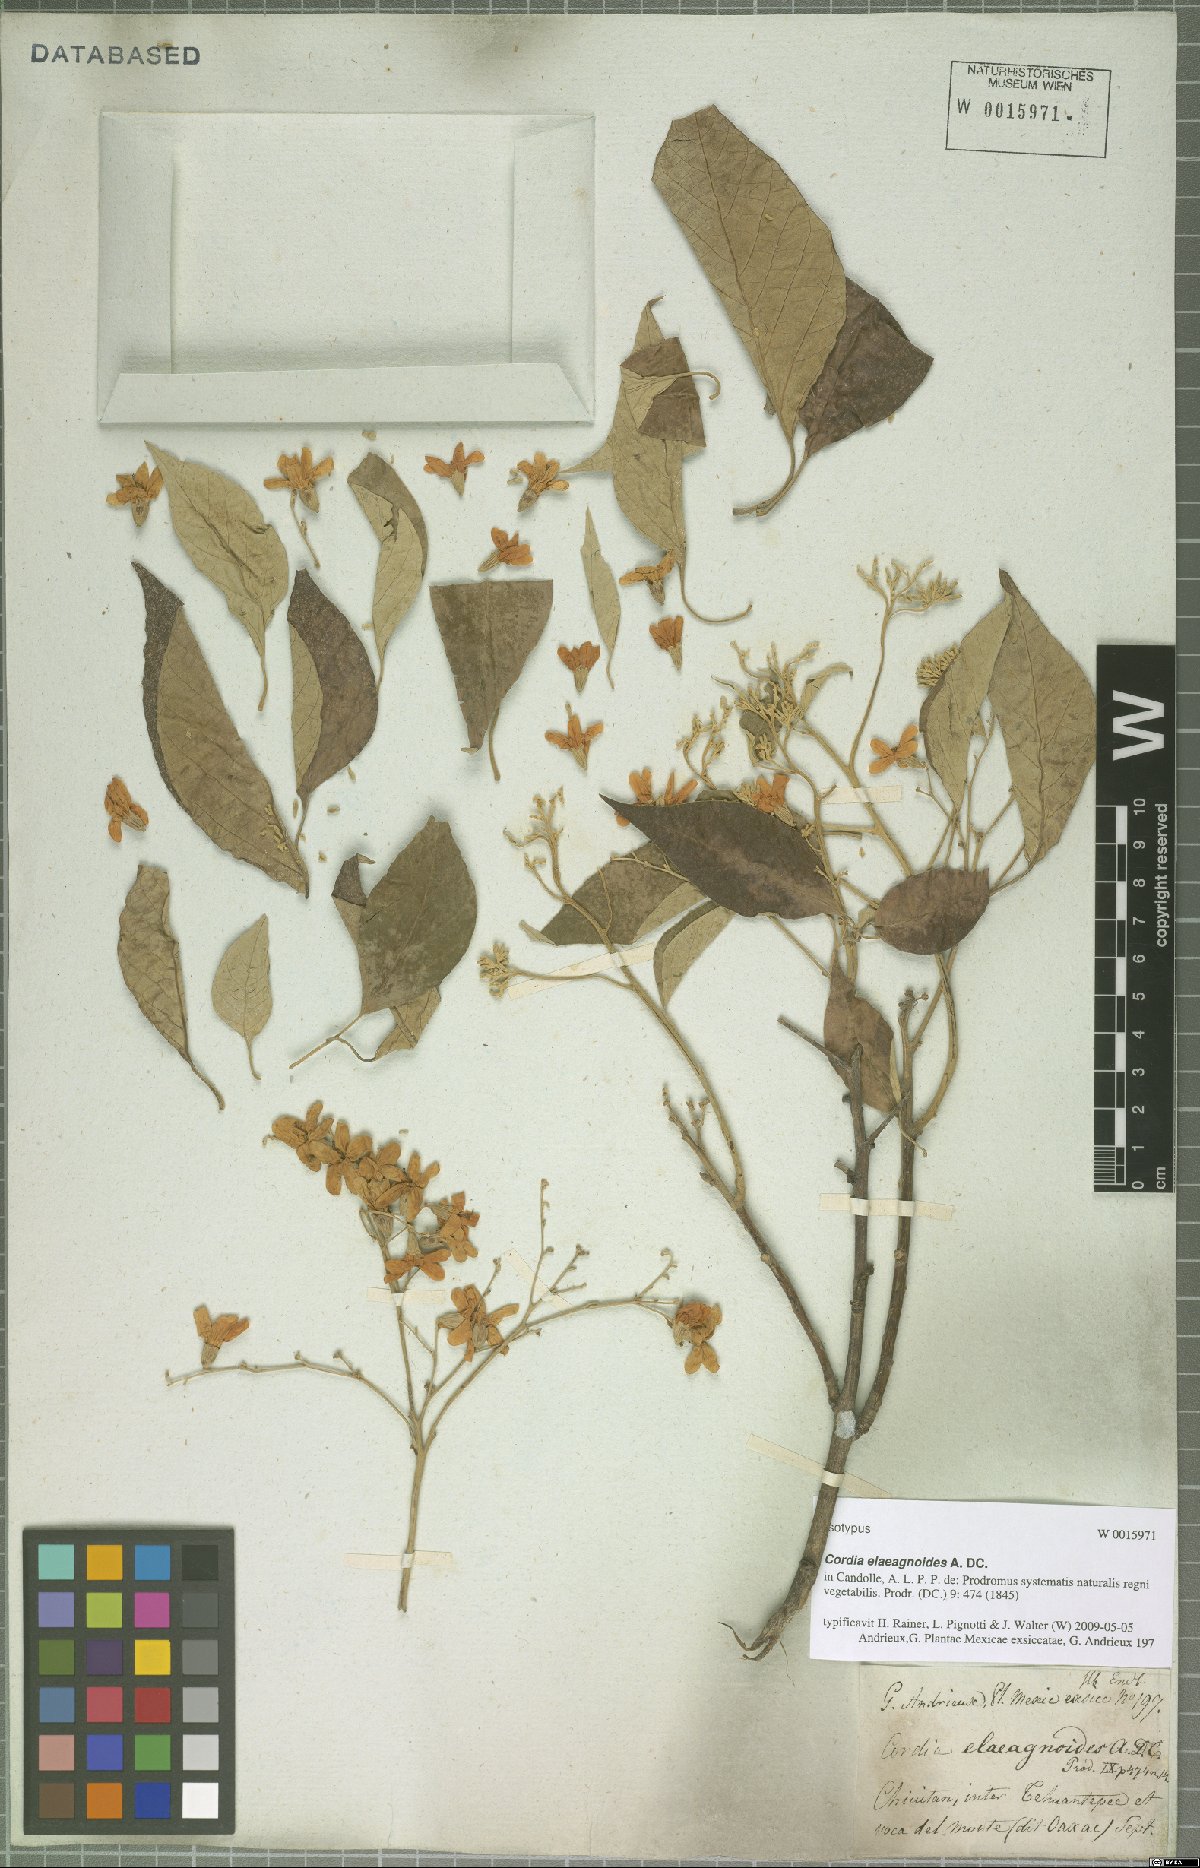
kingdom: Plantae
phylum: Tracheophyta
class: Magnoliopsida
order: Boraginales
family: Cordiaceae
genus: Cordia
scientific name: Cordia elaeagnoides
